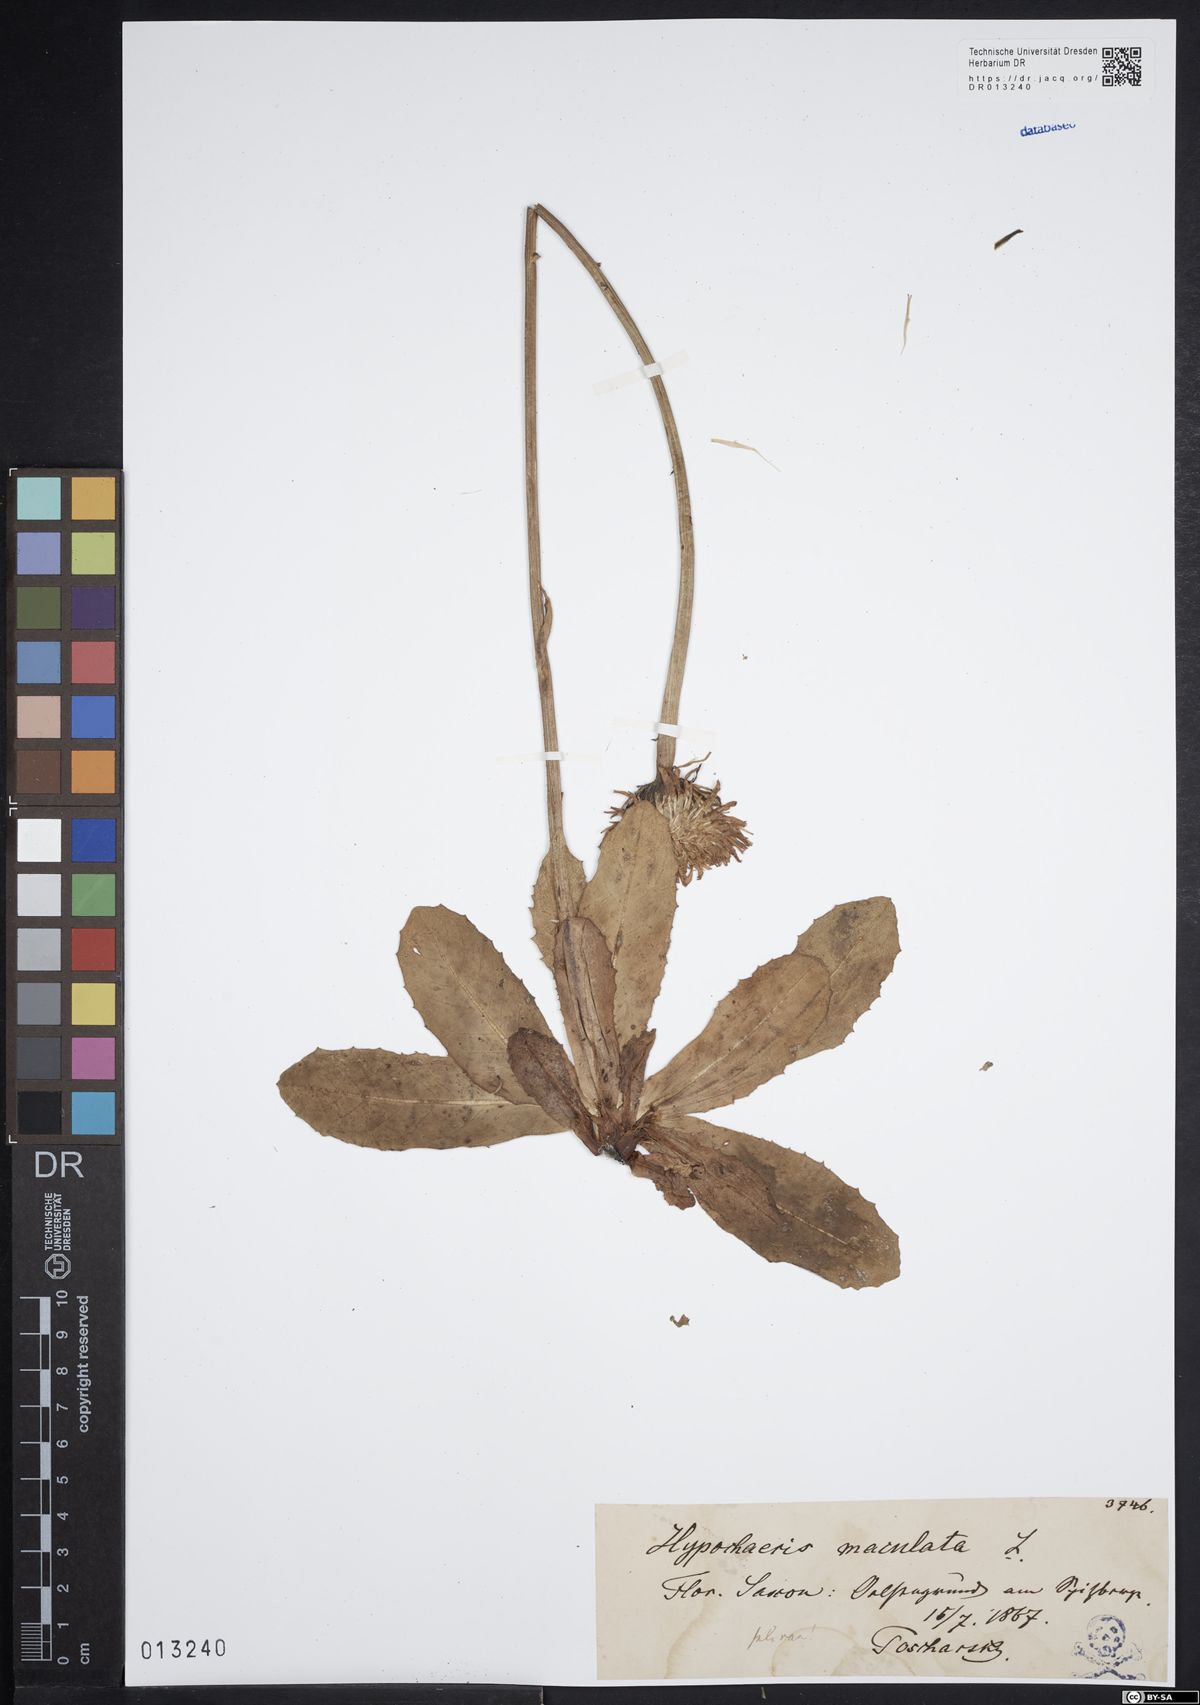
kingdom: Plantae
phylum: Tracheophyta
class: Magnoliopsida
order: Asterales
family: Asteraceae
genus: Trommsdorffia
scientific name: Trommsdorffia maculata
